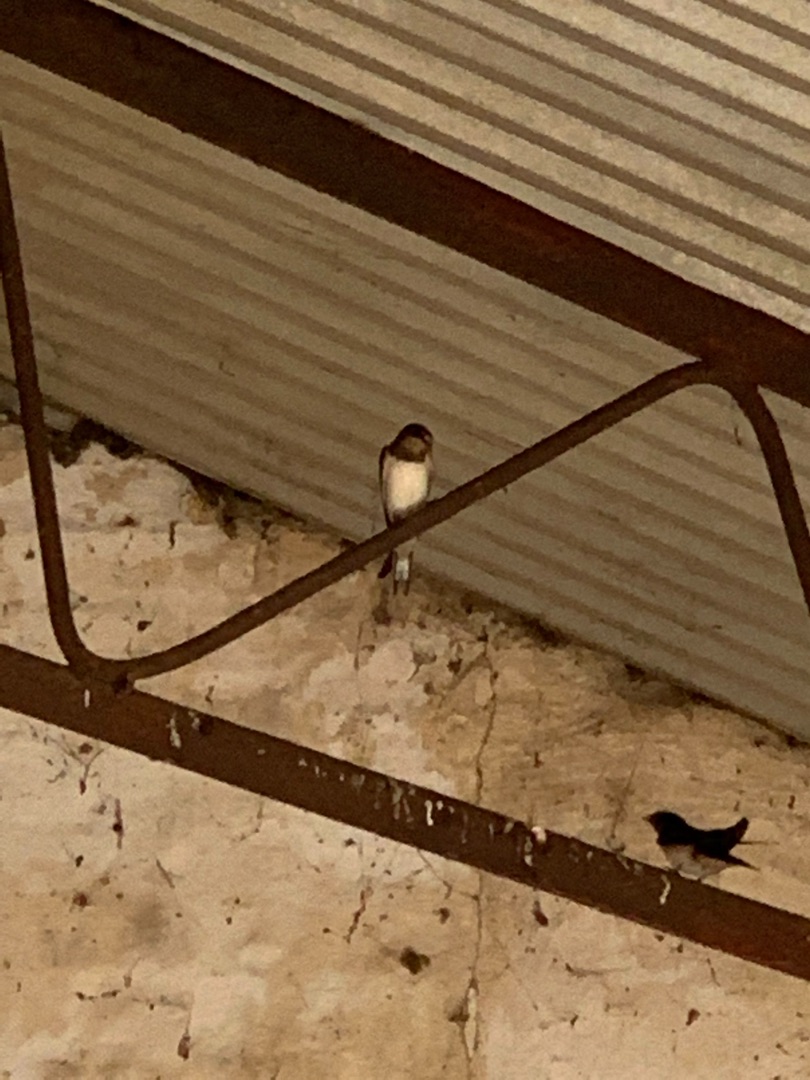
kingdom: Animalia
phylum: Chordata
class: Aves
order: Passeriformes
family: Hirundinidae
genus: Hirundo
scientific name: Hirundo rustica
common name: Landsvale
